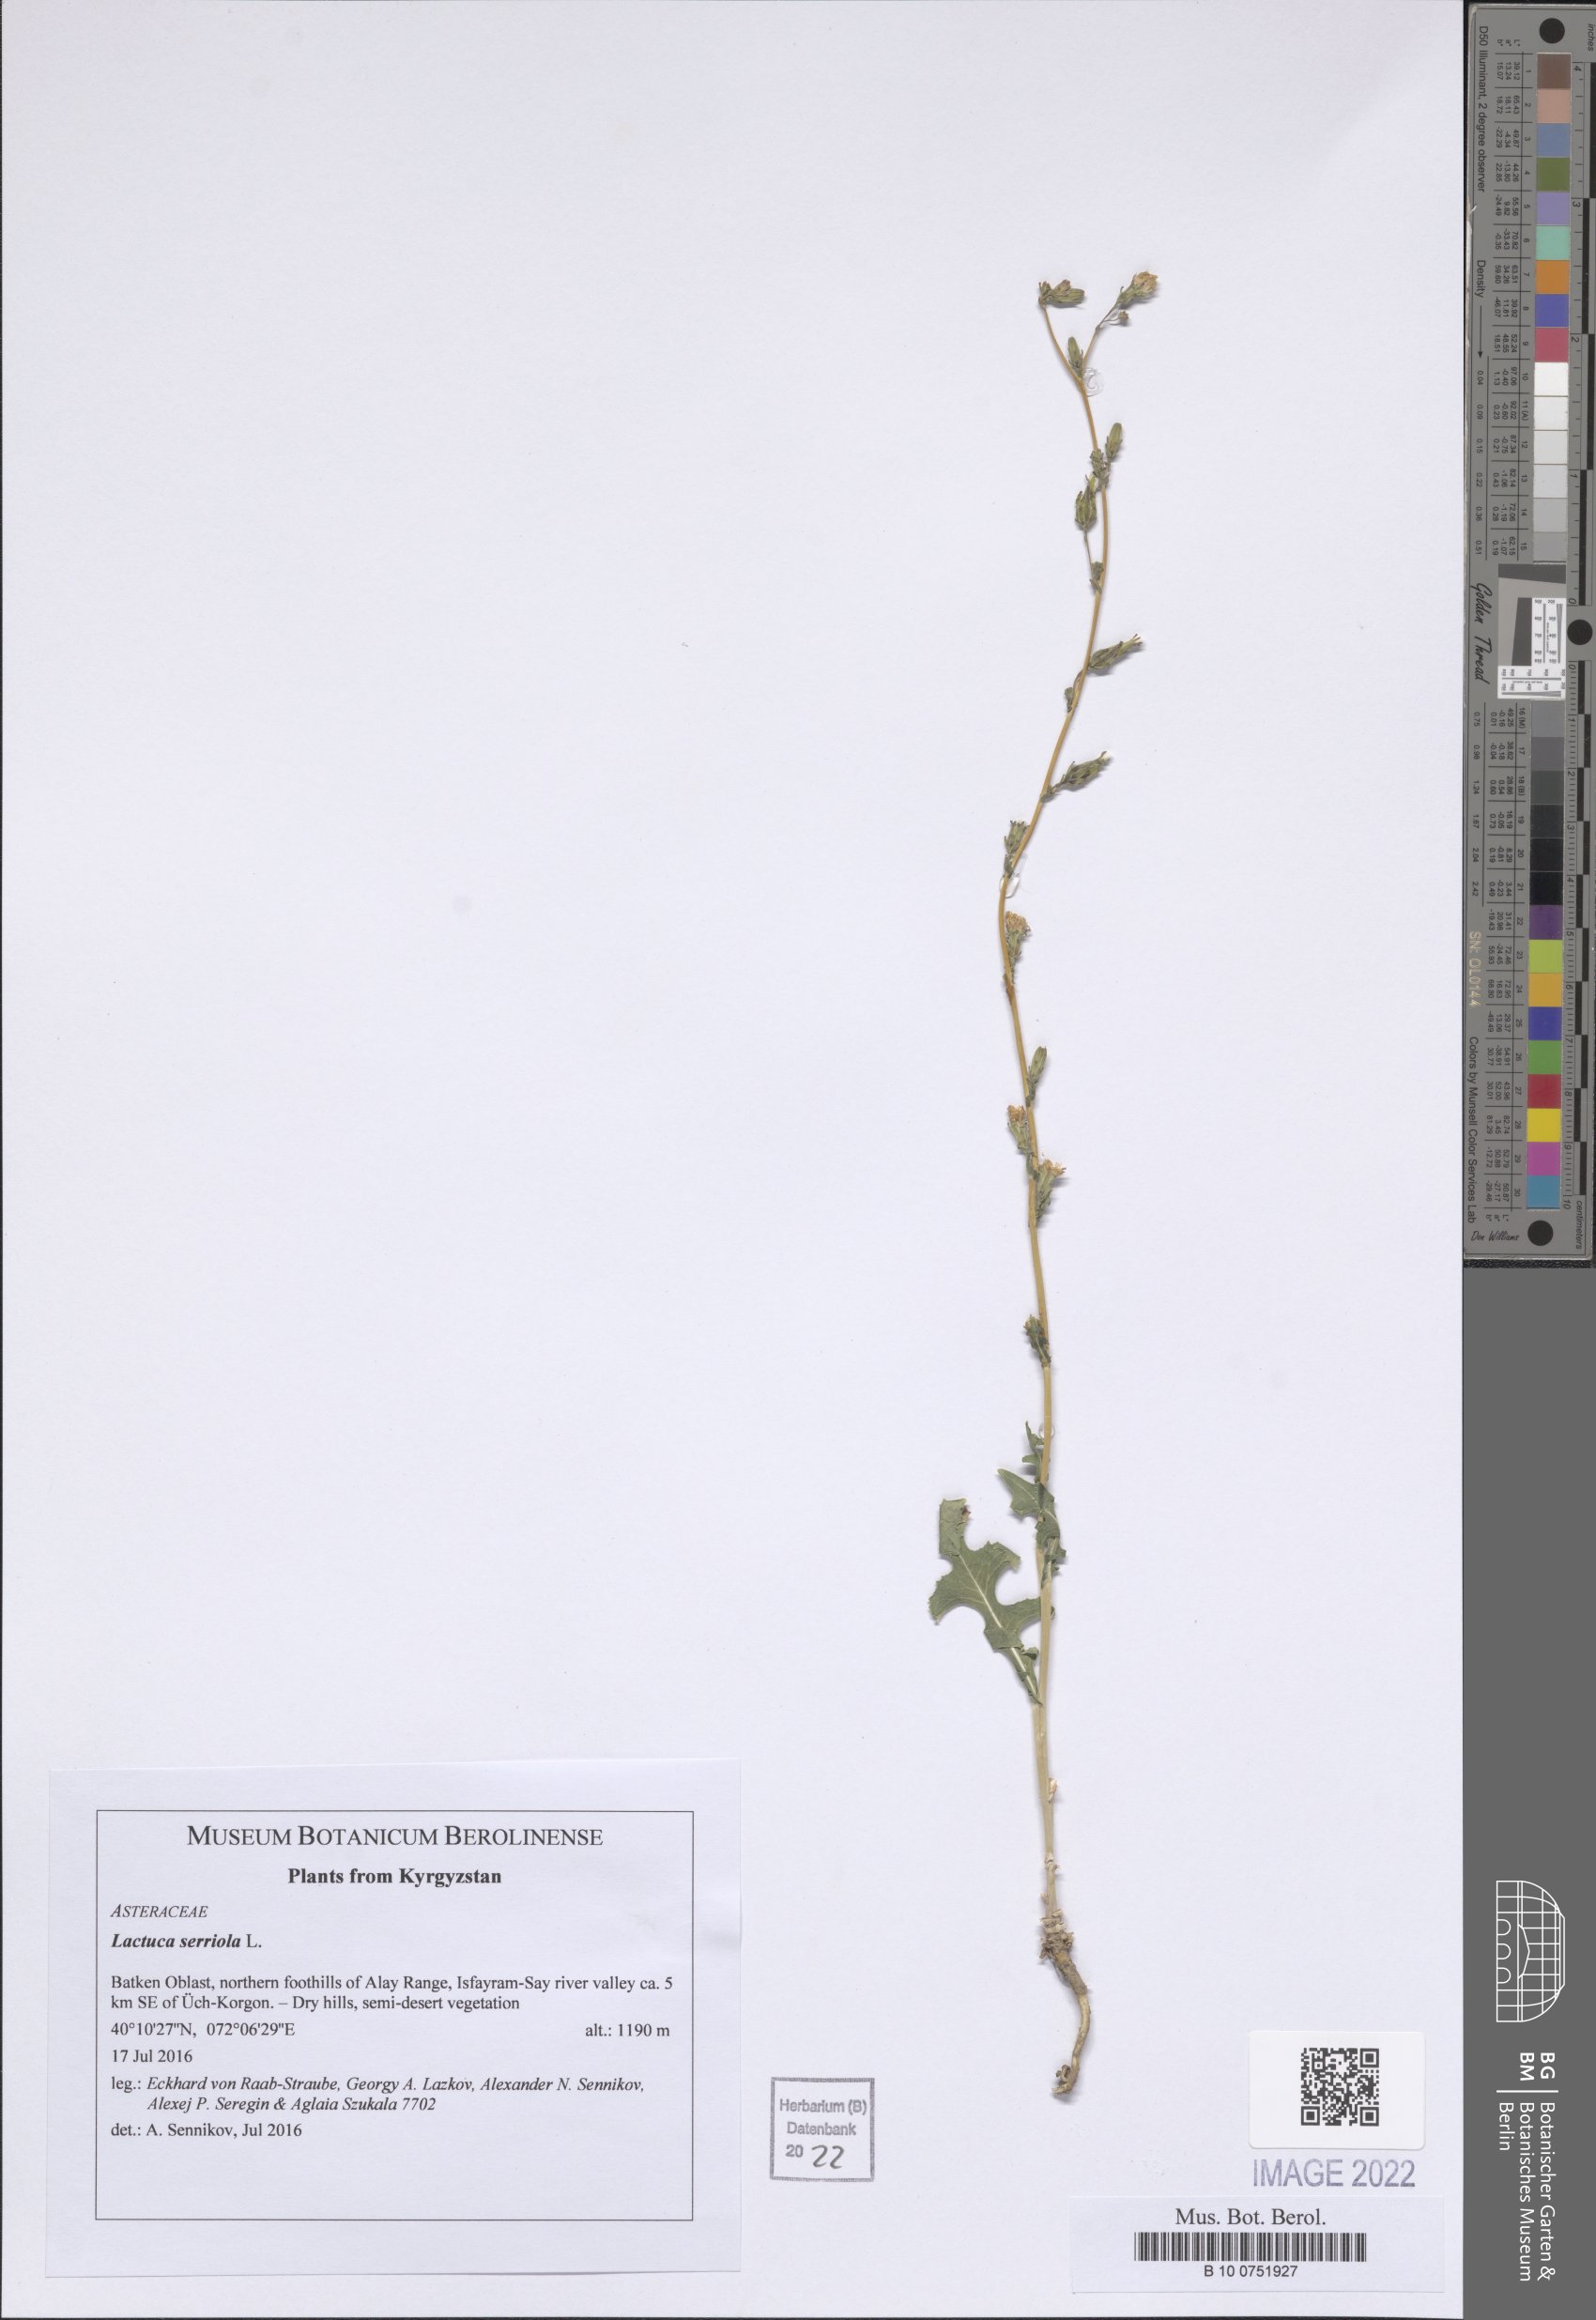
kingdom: Plantae
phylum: Tracheophyta
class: Magnoliopsida
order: Asterales
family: Asteraceae
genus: Lactuca
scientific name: Lactuca serriola
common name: Prickly lettuce
